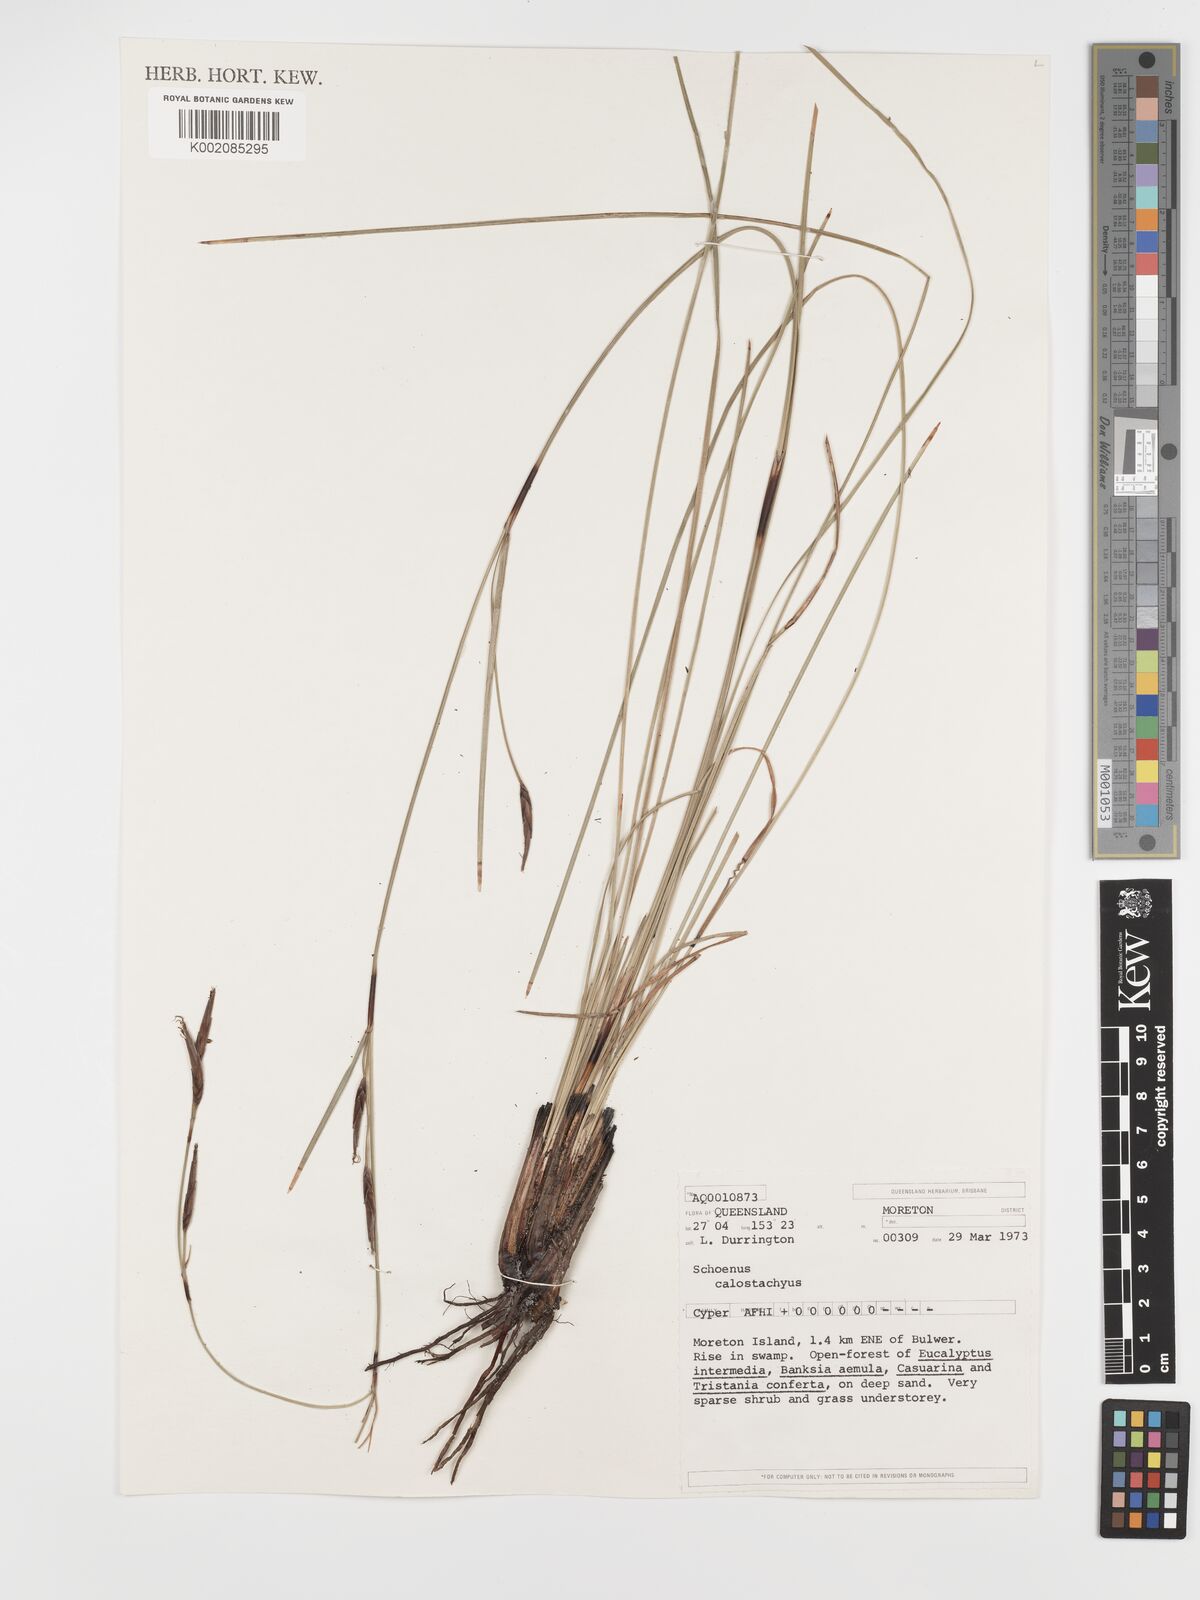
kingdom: Plantae
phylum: Tracheophyta
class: Liliopsida
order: Poales
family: Cyperaceae
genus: Schoenus
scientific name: Schoenus calostachyus
